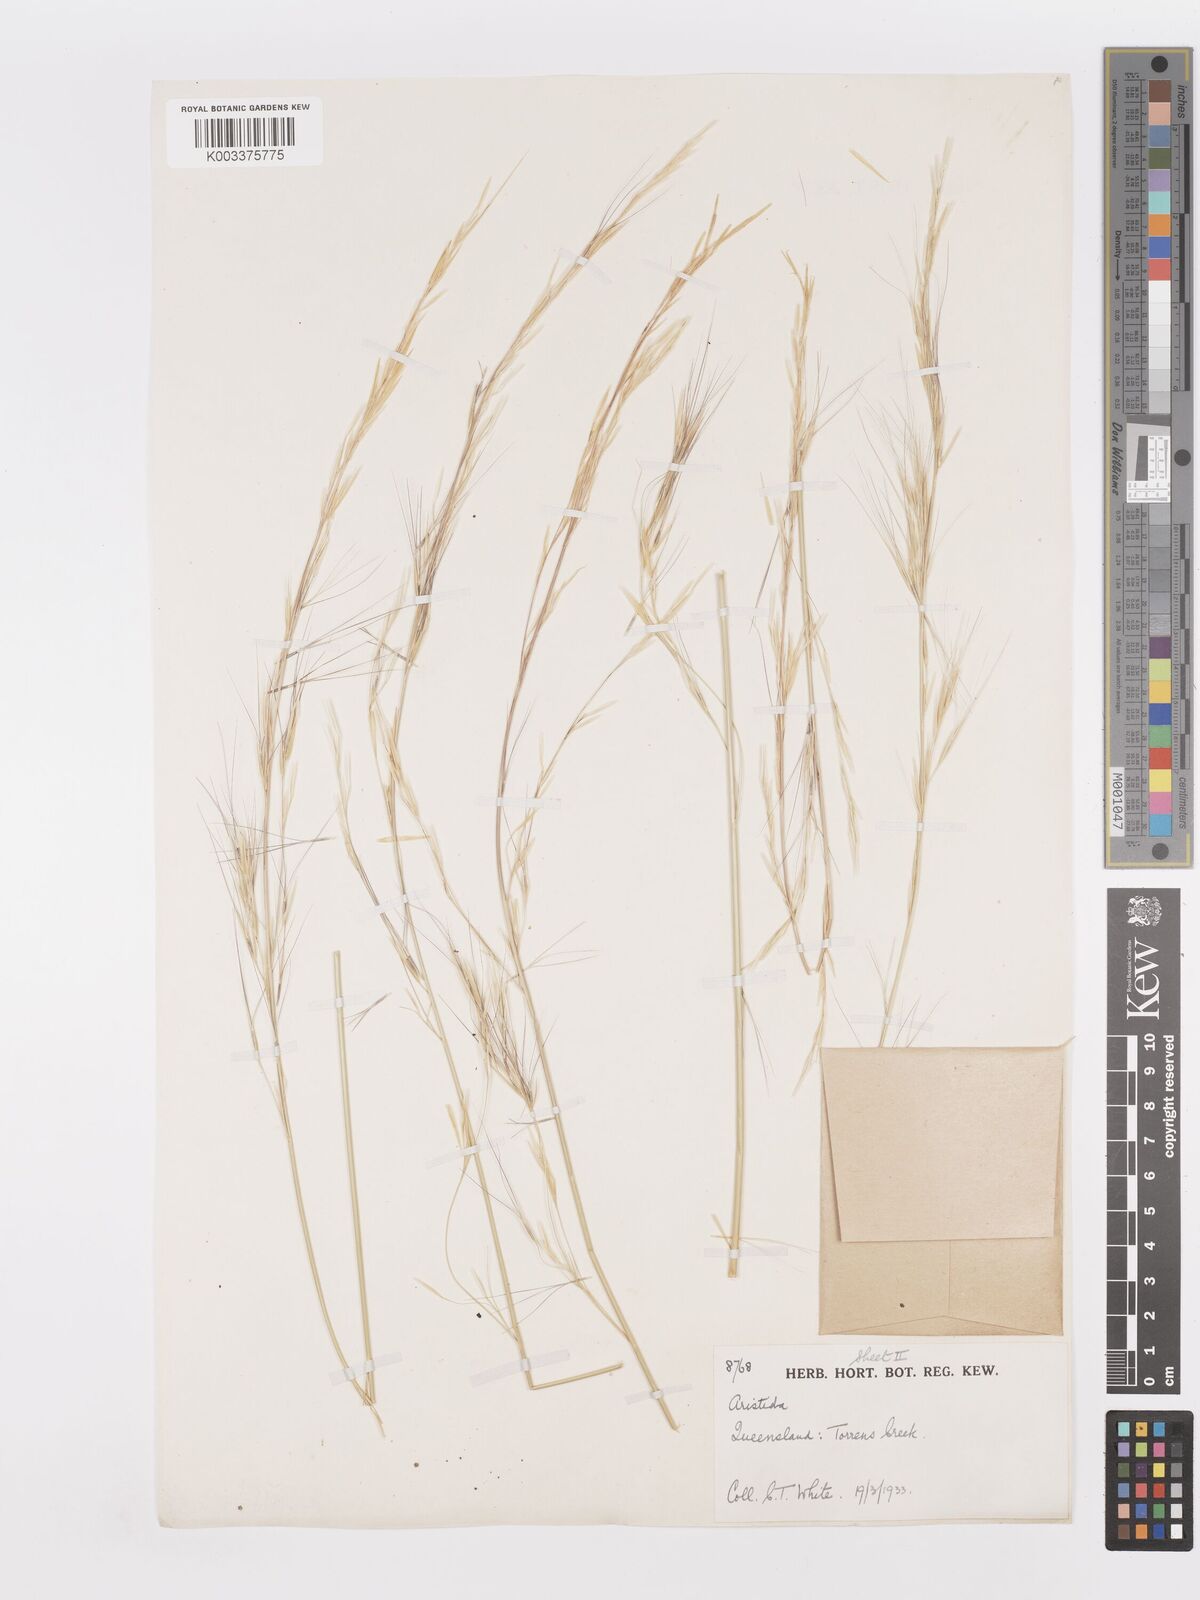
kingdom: Plantae
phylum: Tracheophyta
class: Liliopsida
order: Poales
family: Poaceae
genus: Aristida
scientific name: Aristida
